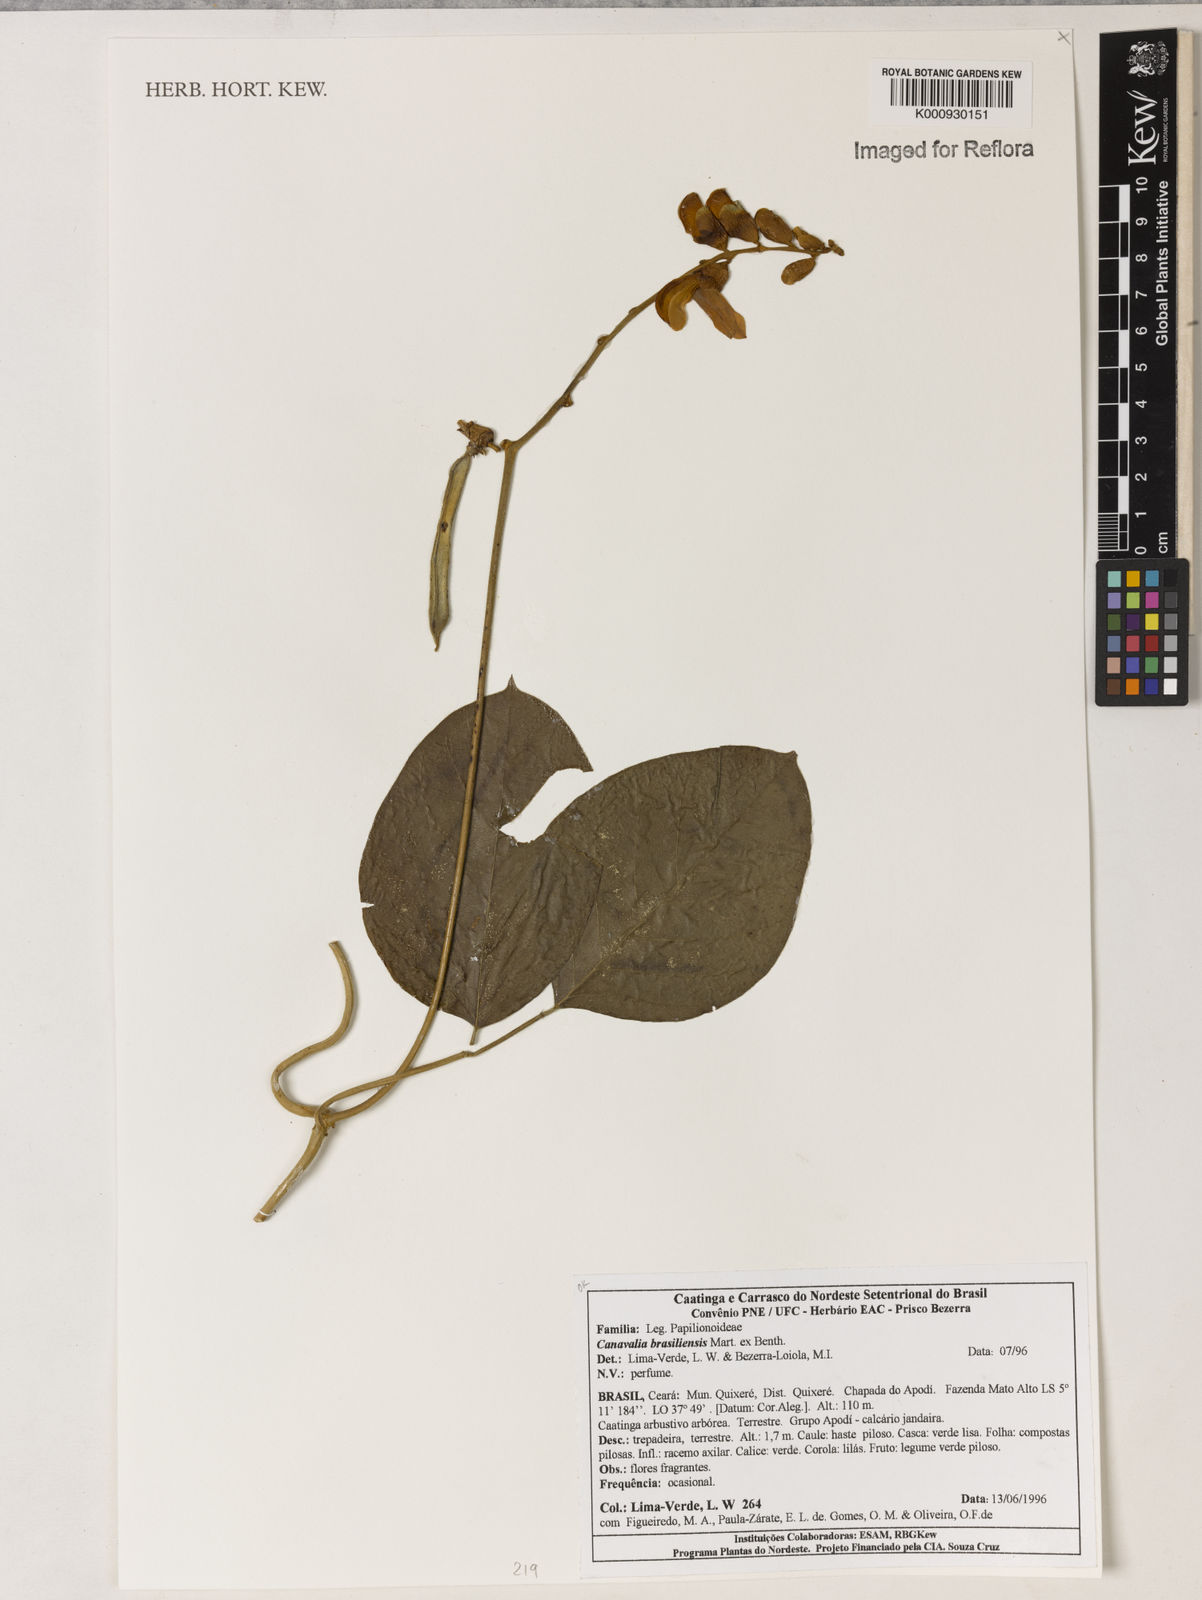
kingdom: Plantae
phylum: Tracheophyta
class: Magnoliopsida
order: Fabales
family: Fabaceae
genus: Canavalia
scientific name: Canavalia brasiliensis
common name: Barbicou-bean
